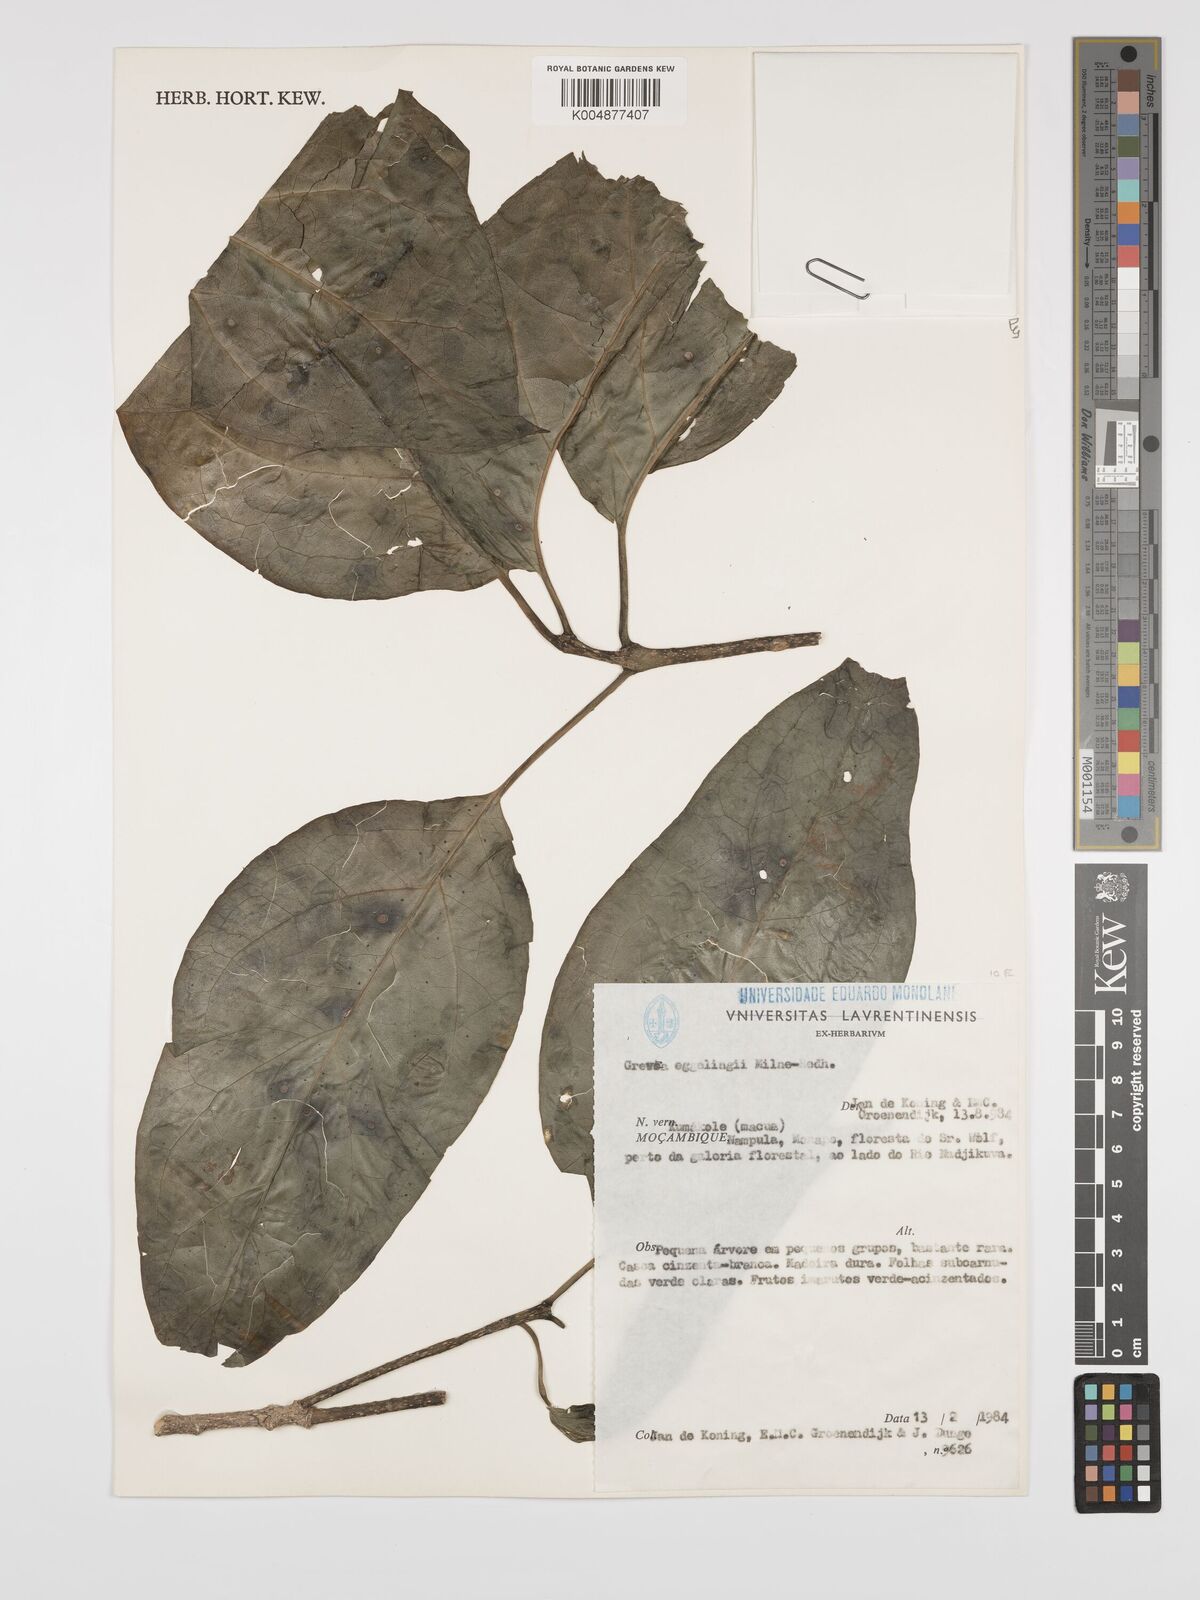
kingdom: Plantae
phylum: Tracheophyta
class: Magnoliopsida
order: Solanales
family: Montiniaceae
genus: Grevea
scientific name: Grevea eggelingii
